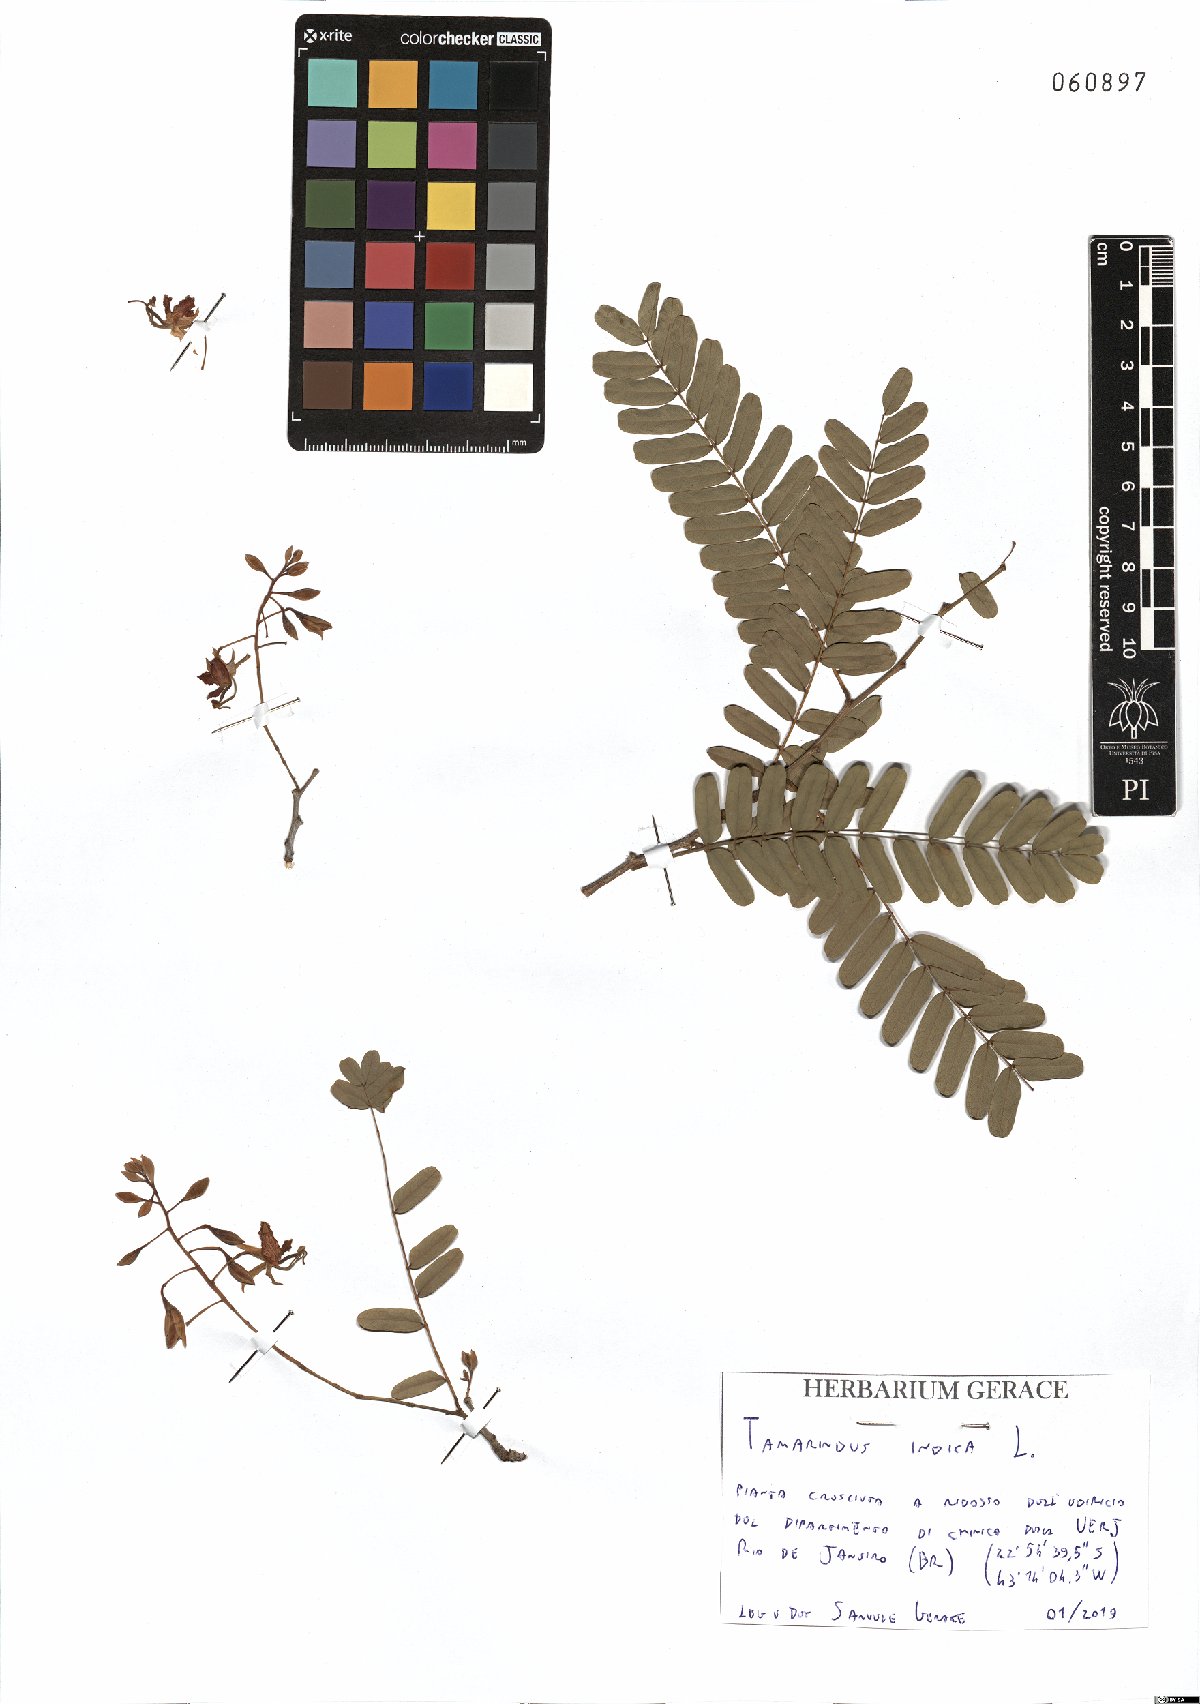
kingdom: Plantae
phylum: Tracheophyta
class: Magnoliopsida
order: Fabales
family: Fabaceae
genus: Tamarindus
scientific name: Tamarindus indica
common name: Tamarind
